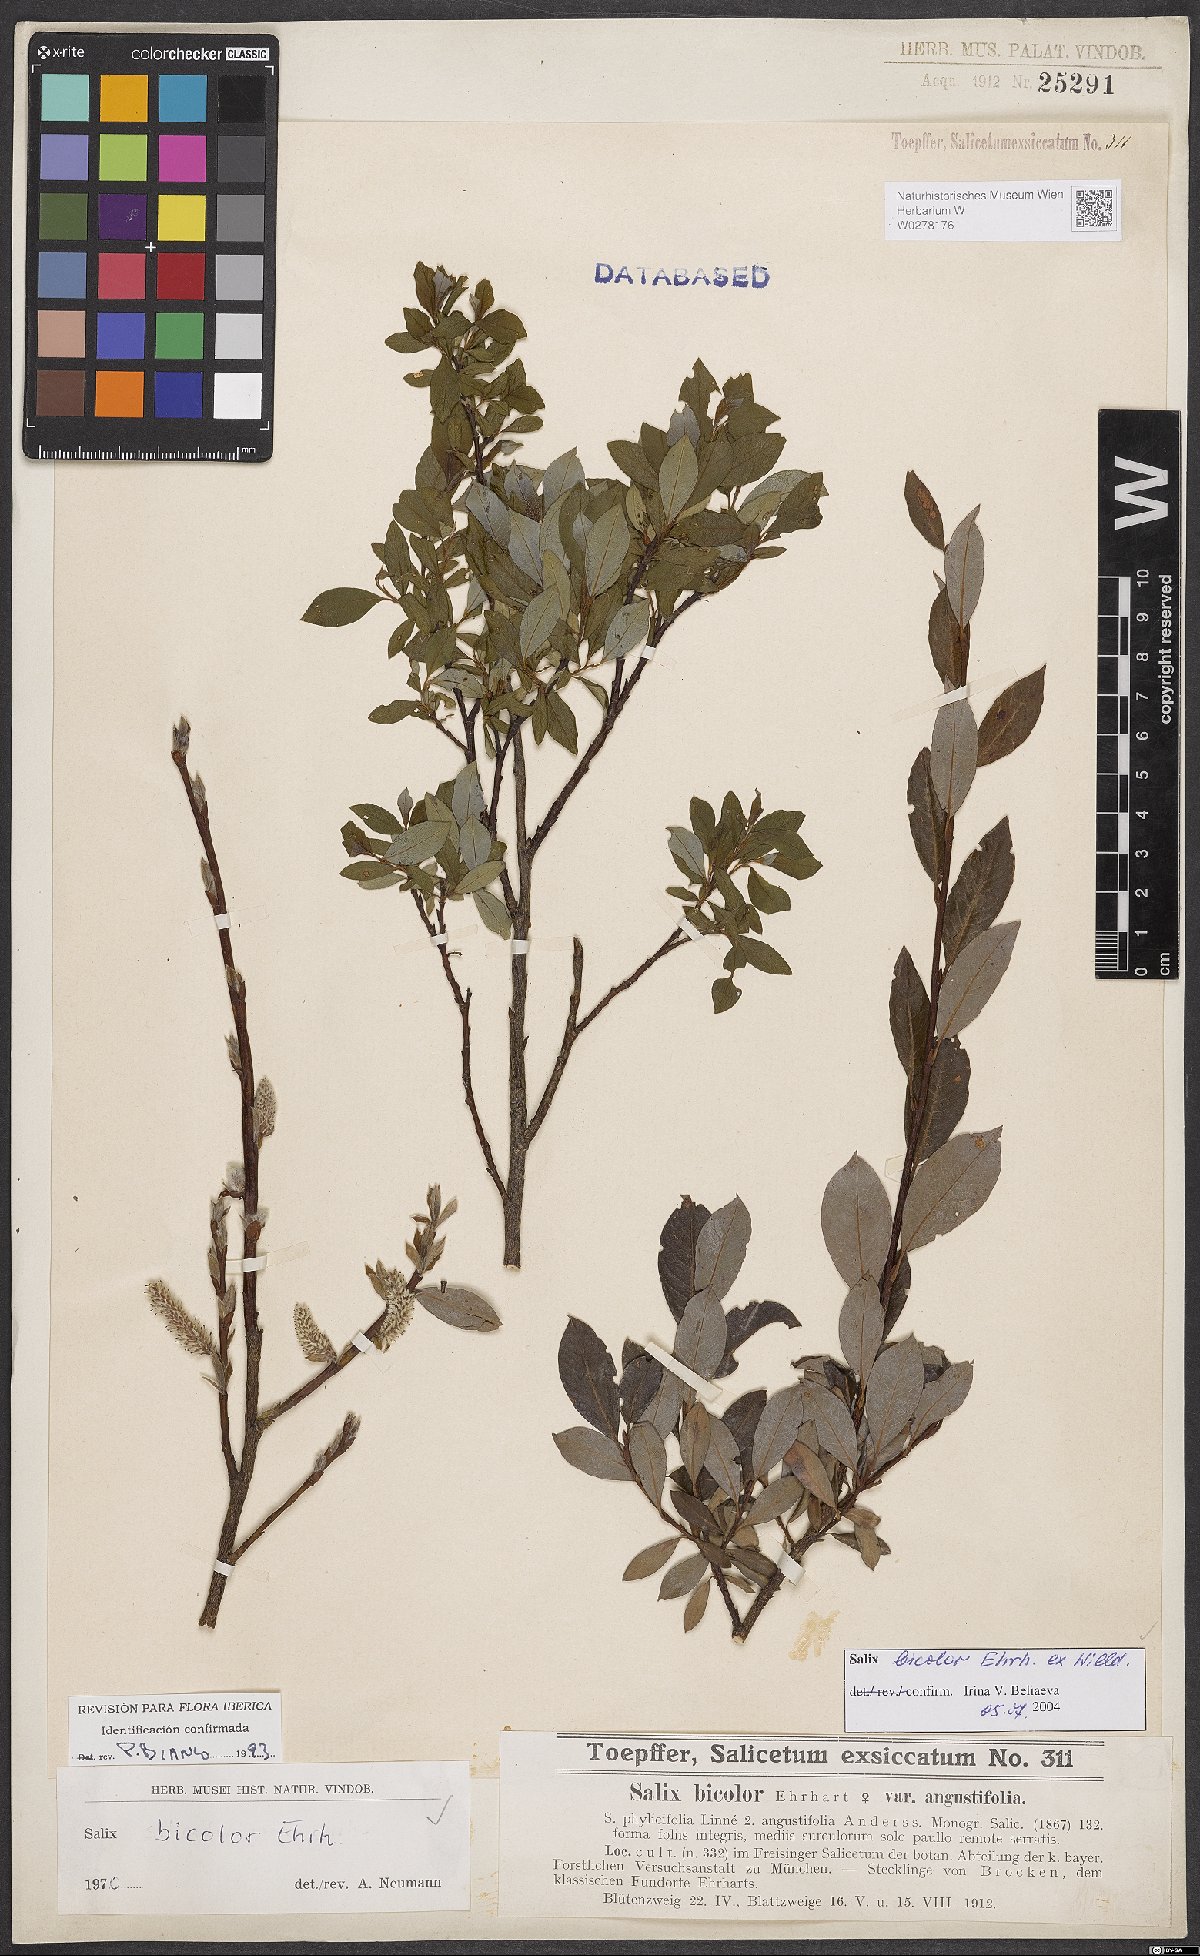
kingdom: Plantae
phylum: Tracheophyta
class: Magnoliopsida
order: Malpighiales
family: Salicaceae
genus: Salix
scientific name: Salix bicolor
